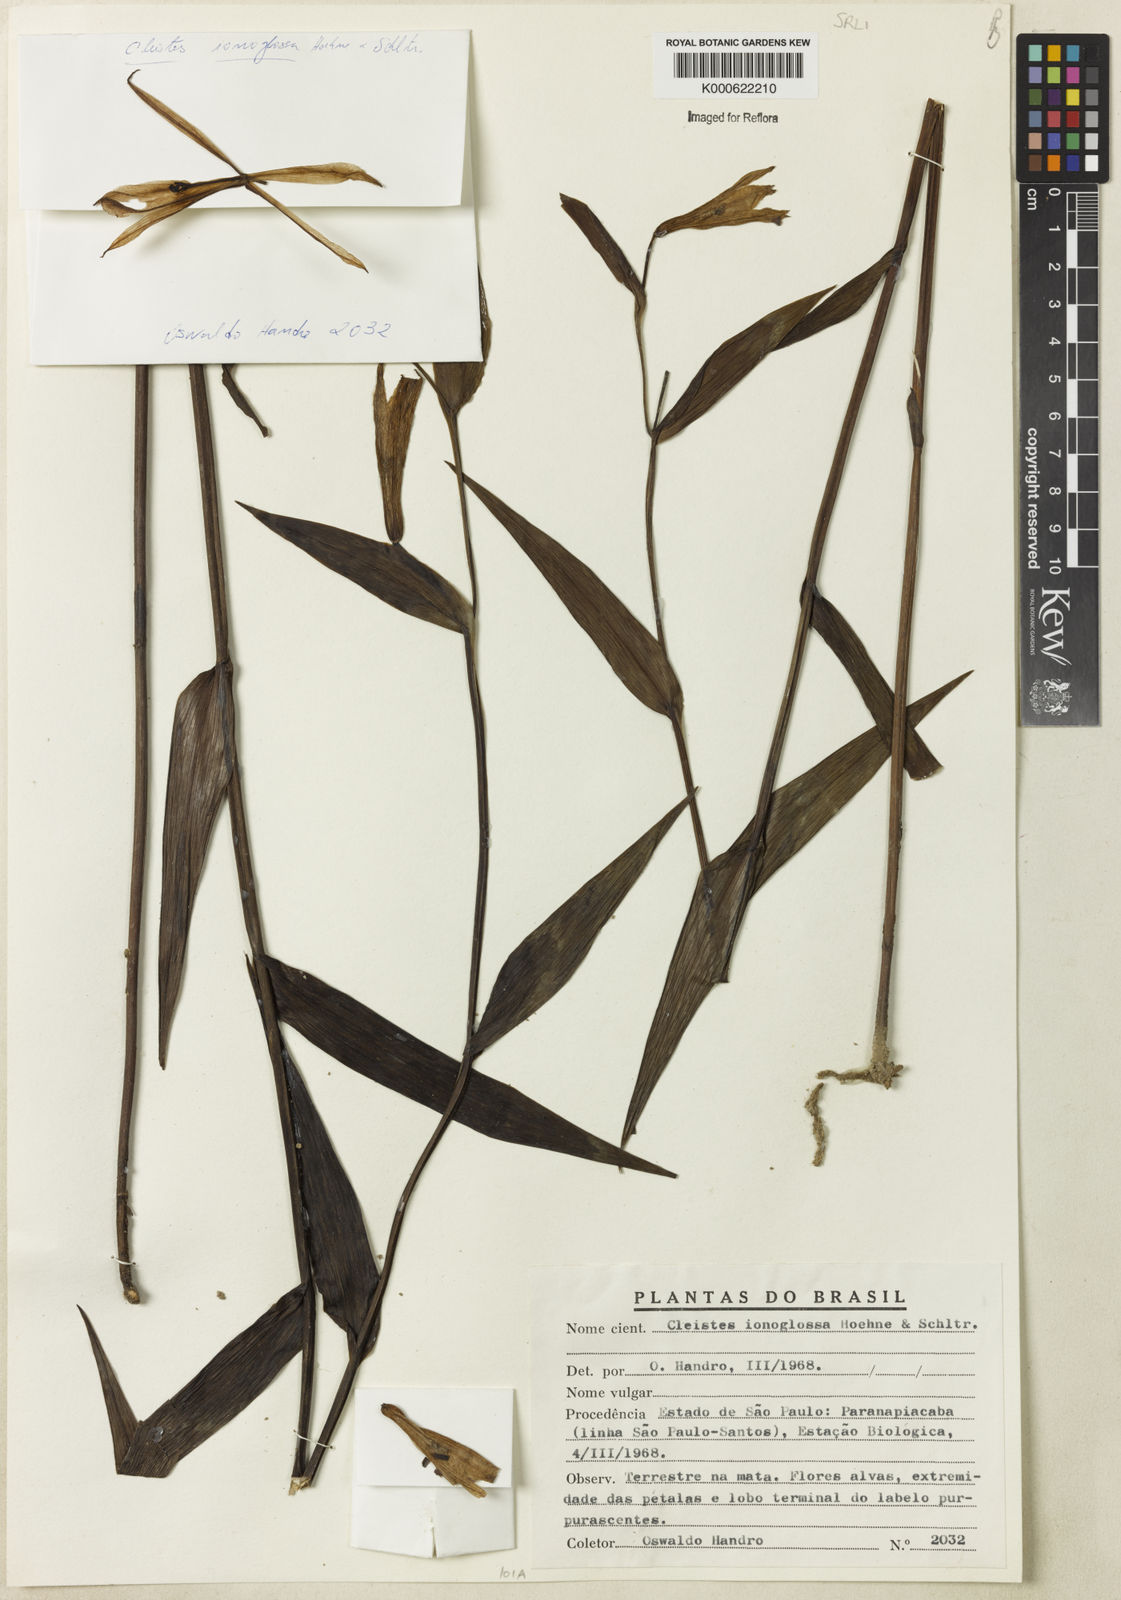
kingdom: Plantae
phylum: Tracheophyta
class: Liliopsida
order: Asparagales
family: Orchidaceae
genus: Cleistes
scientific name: Cleistes ionoglossa
